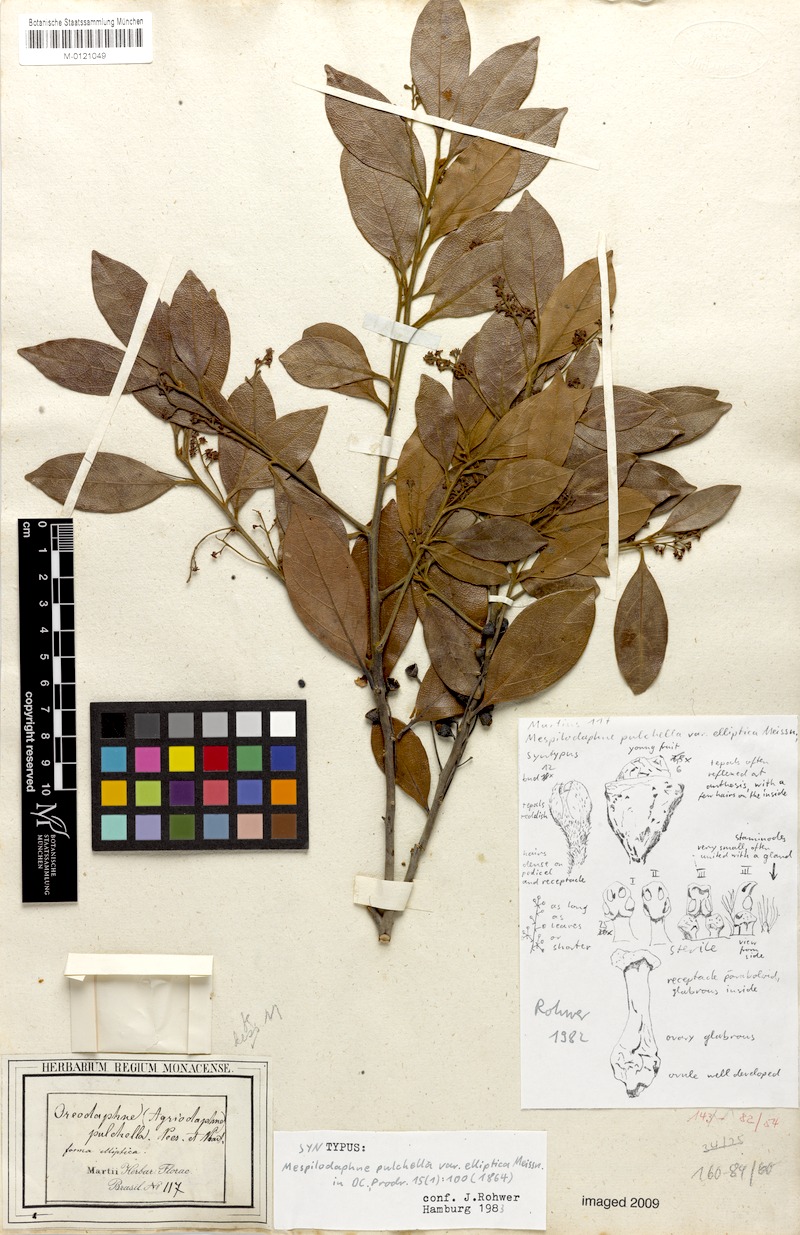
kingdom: Plantae
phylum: Tracheophyta
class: Magnoliopsida
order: Laurales
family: Lauraceae
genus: Mespilodaphne
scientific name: Mespilodaphne pulchella
